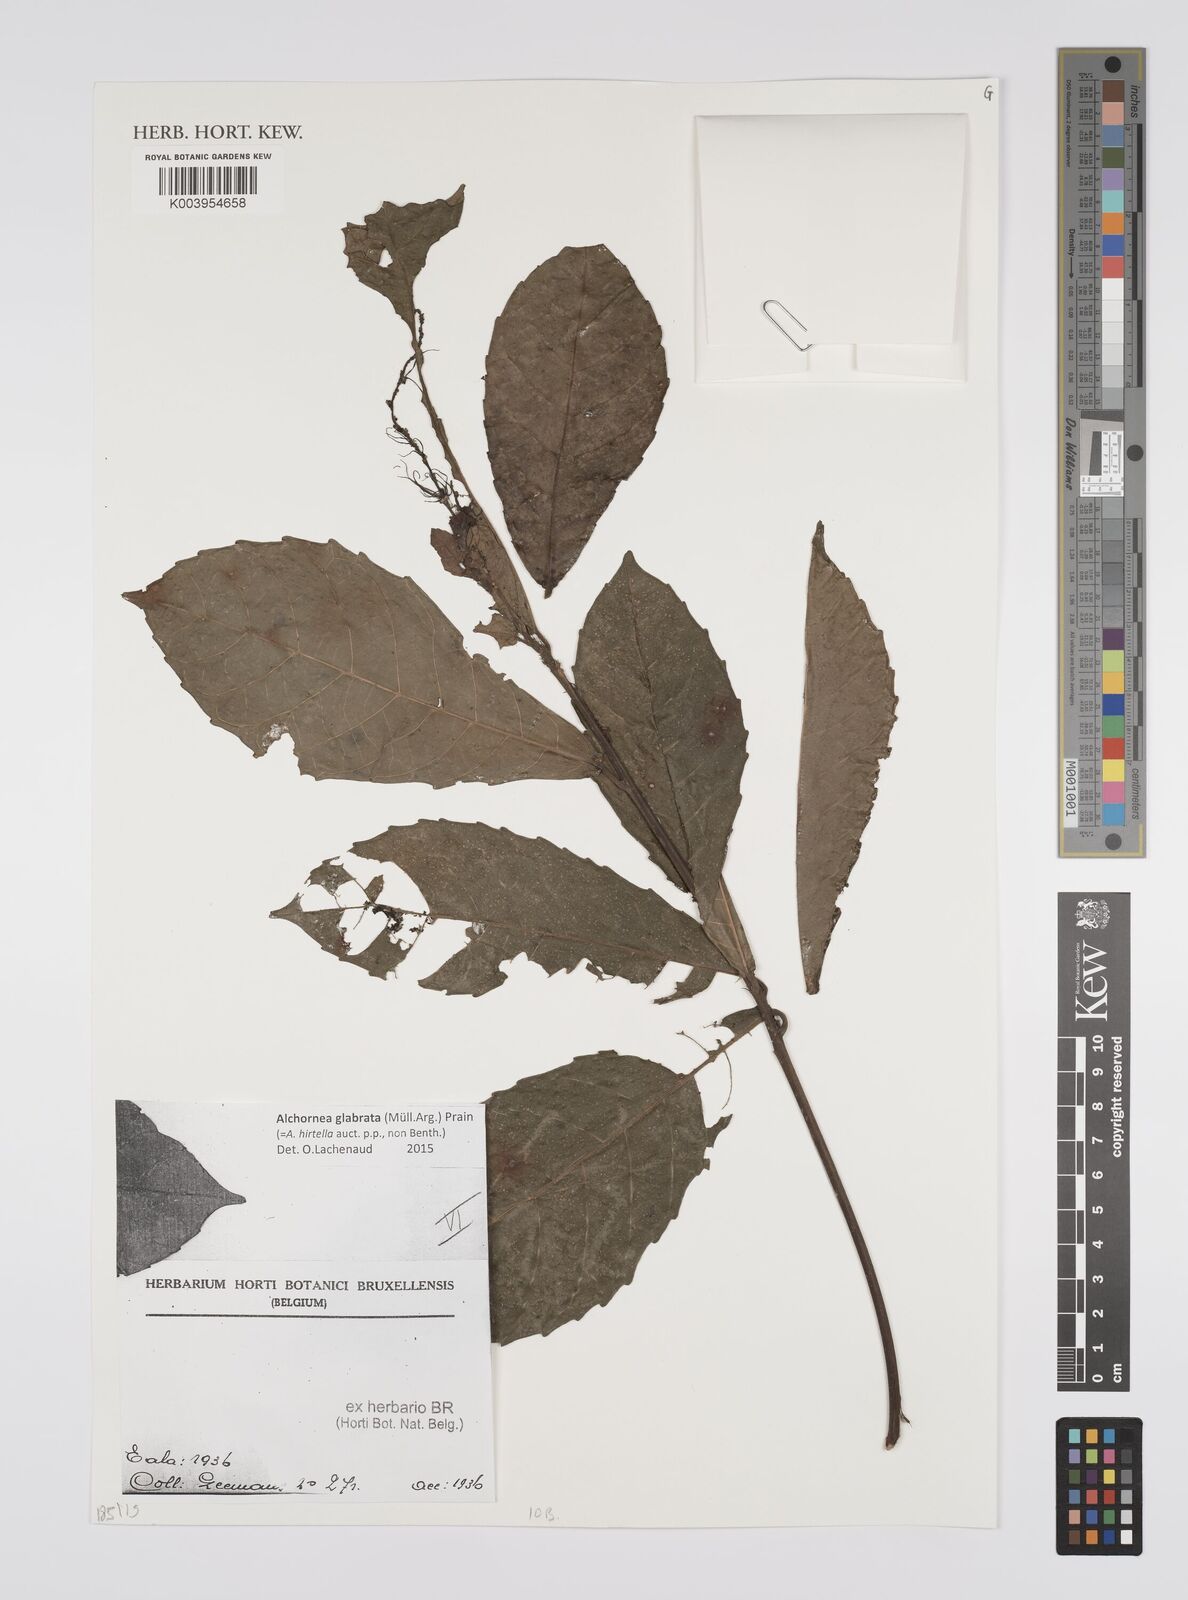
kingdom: Plantae
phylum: Tracheophyta
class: Magnoliopsida
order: Malpighiales
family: Euphorbiaceae
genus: Alchornea
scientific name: Alchornea hirtella
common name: Forest bead-string
